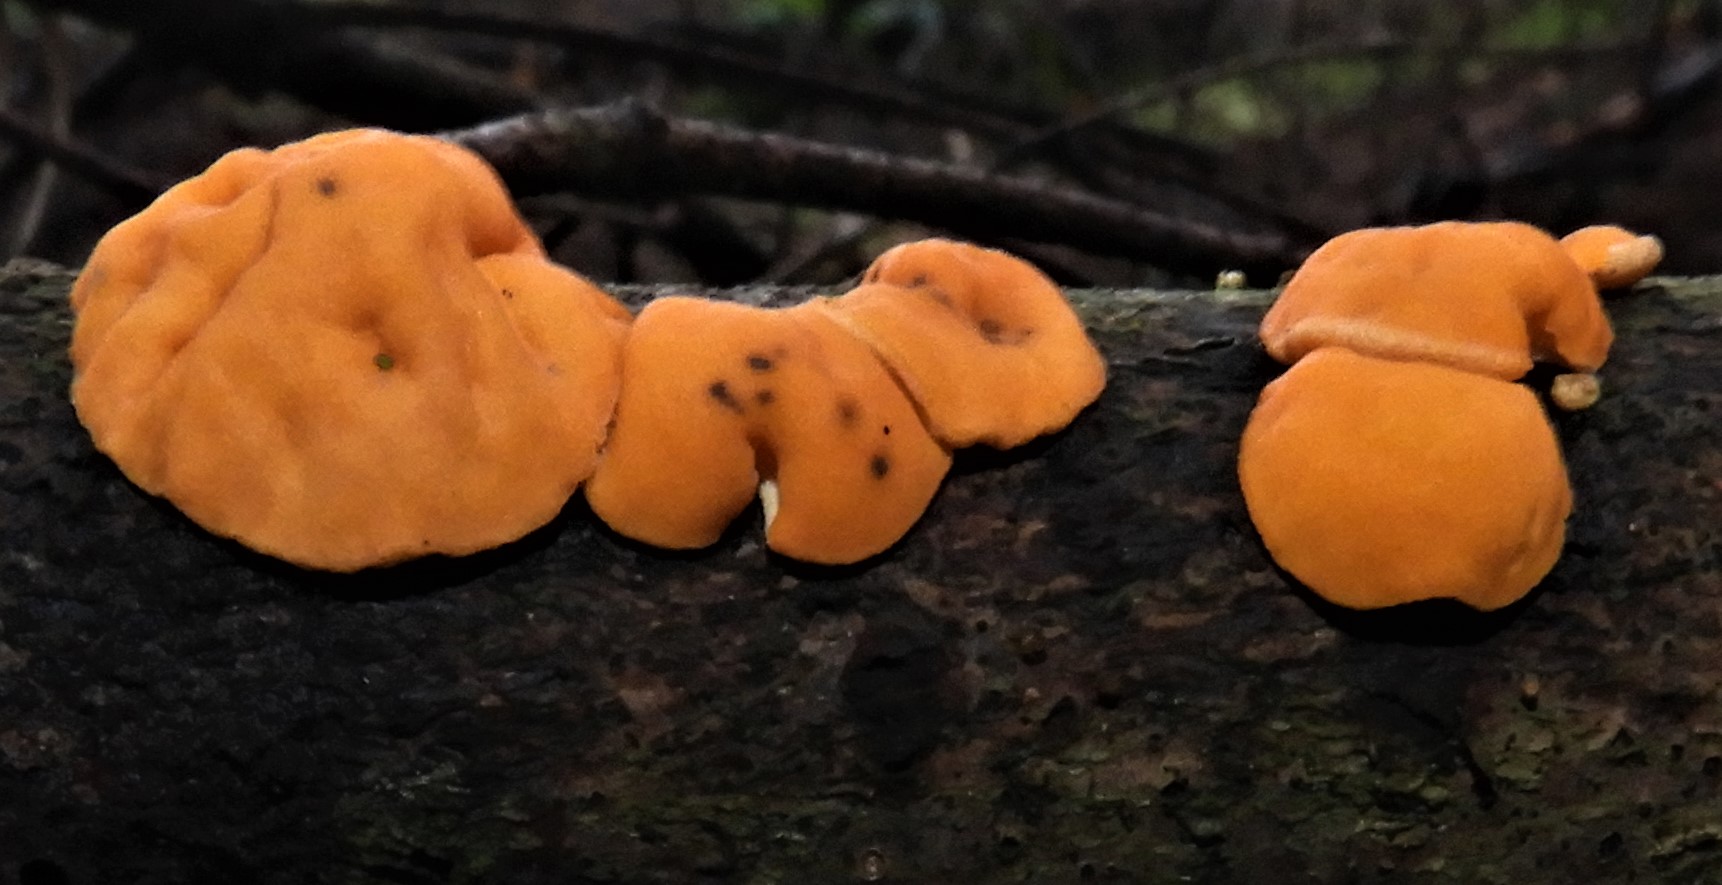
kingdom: Fungi
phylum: Ascomycota
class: Pezizomycetes
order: Pezizales
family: Sarcoscyphaceae
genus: Pithya
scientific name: Pithya vulgaris
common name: stor dukatbæger
